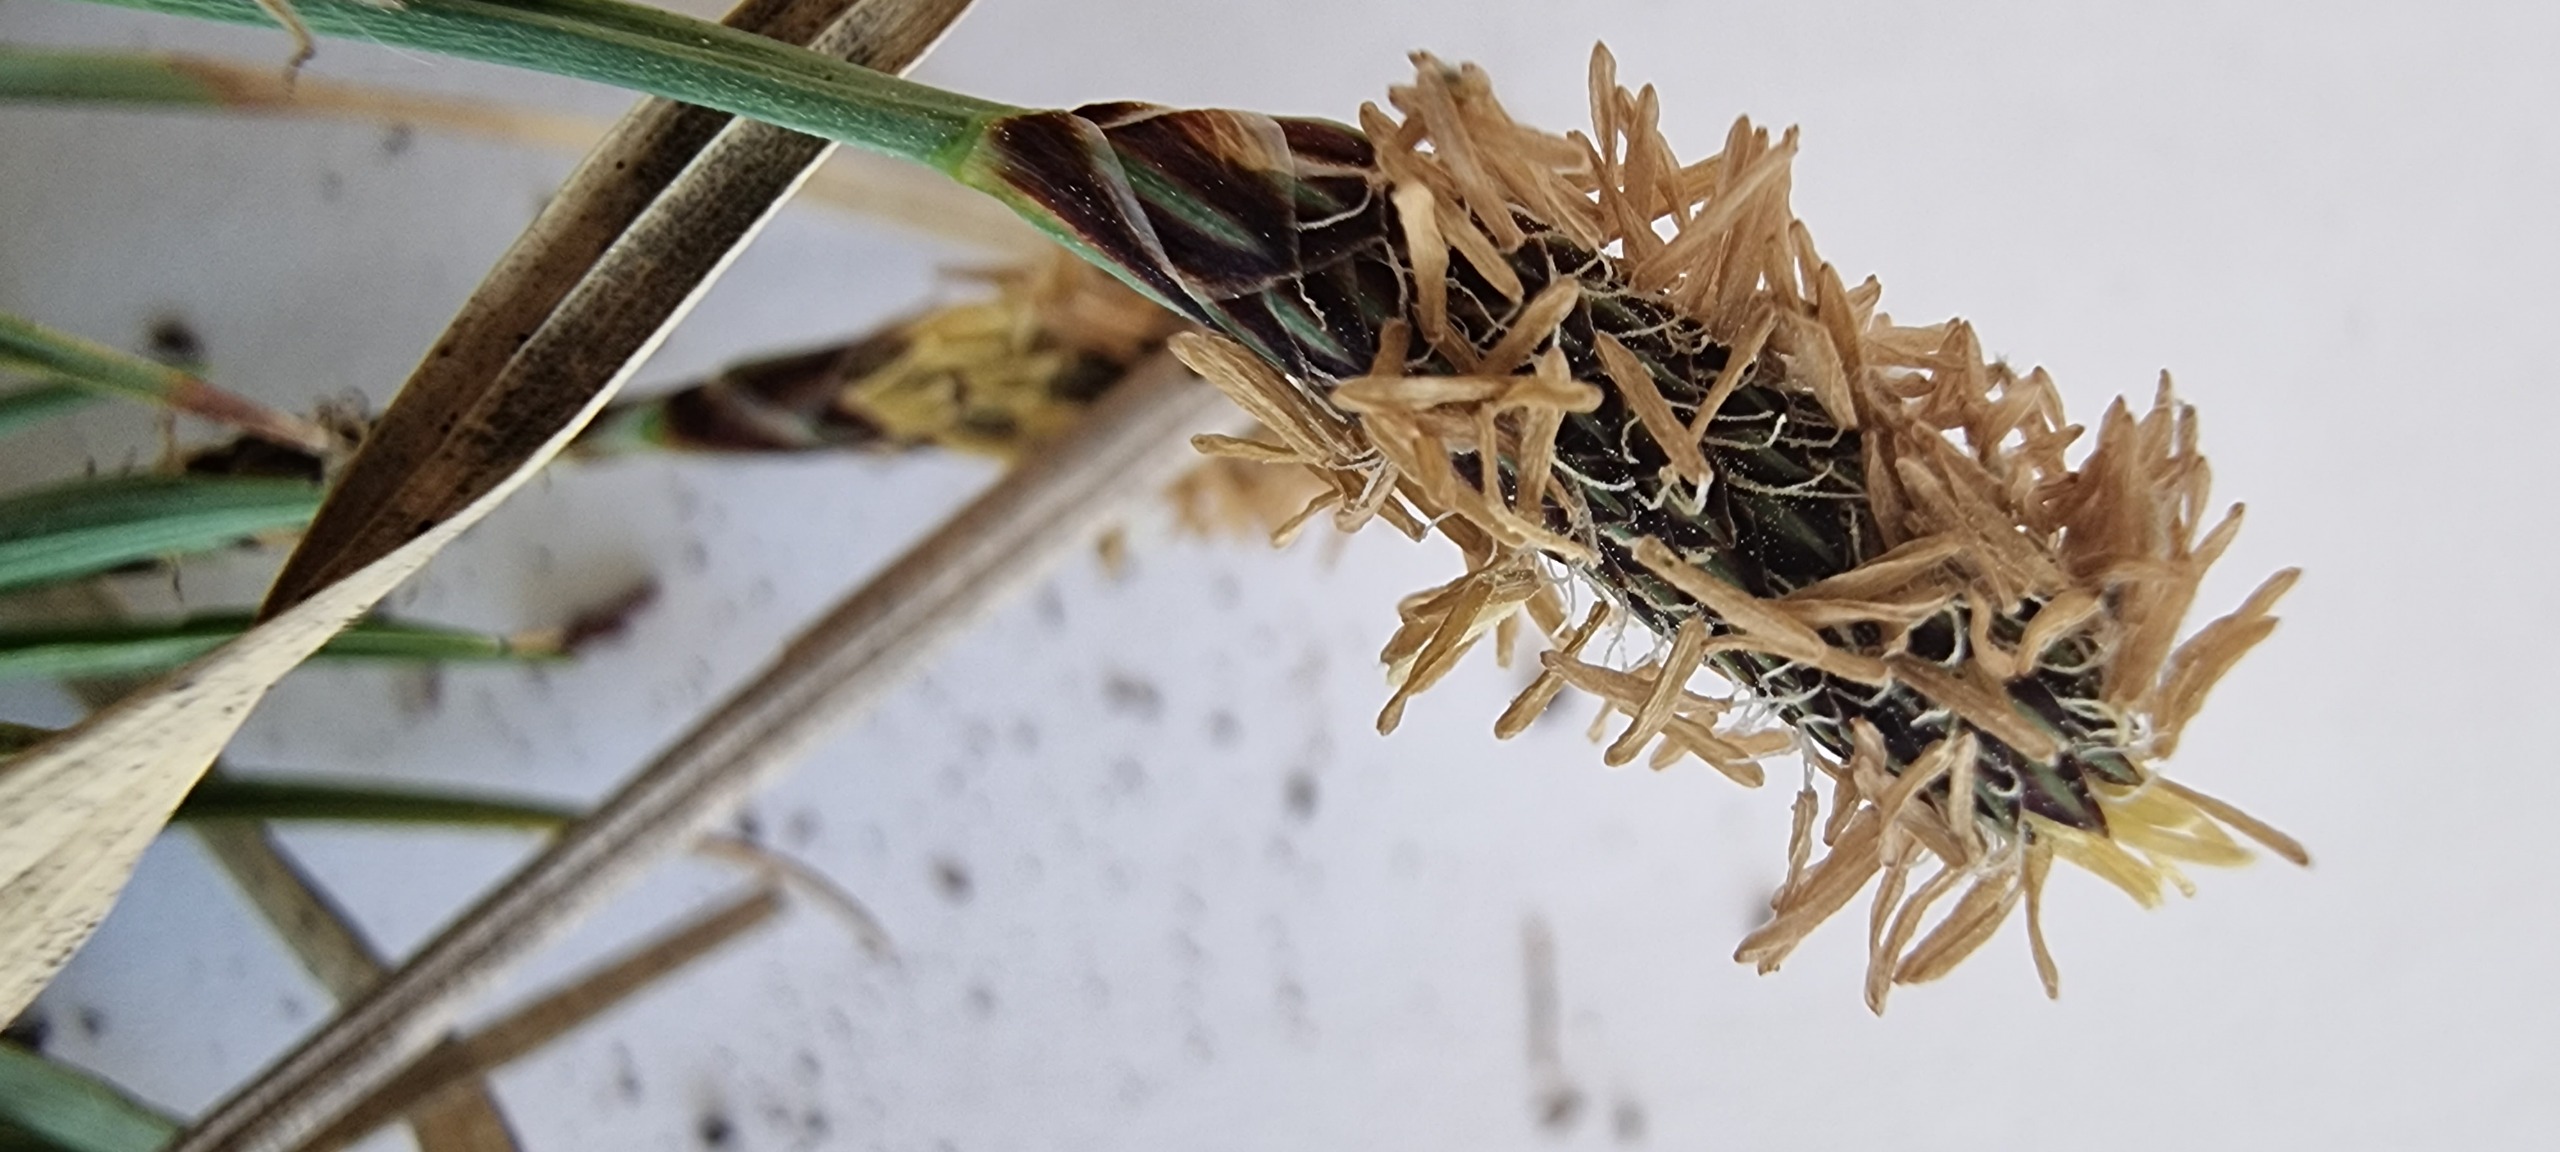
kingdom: Plantae
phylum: Tracheophyta
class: Liliopsida
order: Poales
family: Cyperaceae
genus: Carex
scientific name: Carex panicea
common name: Hirse-star
